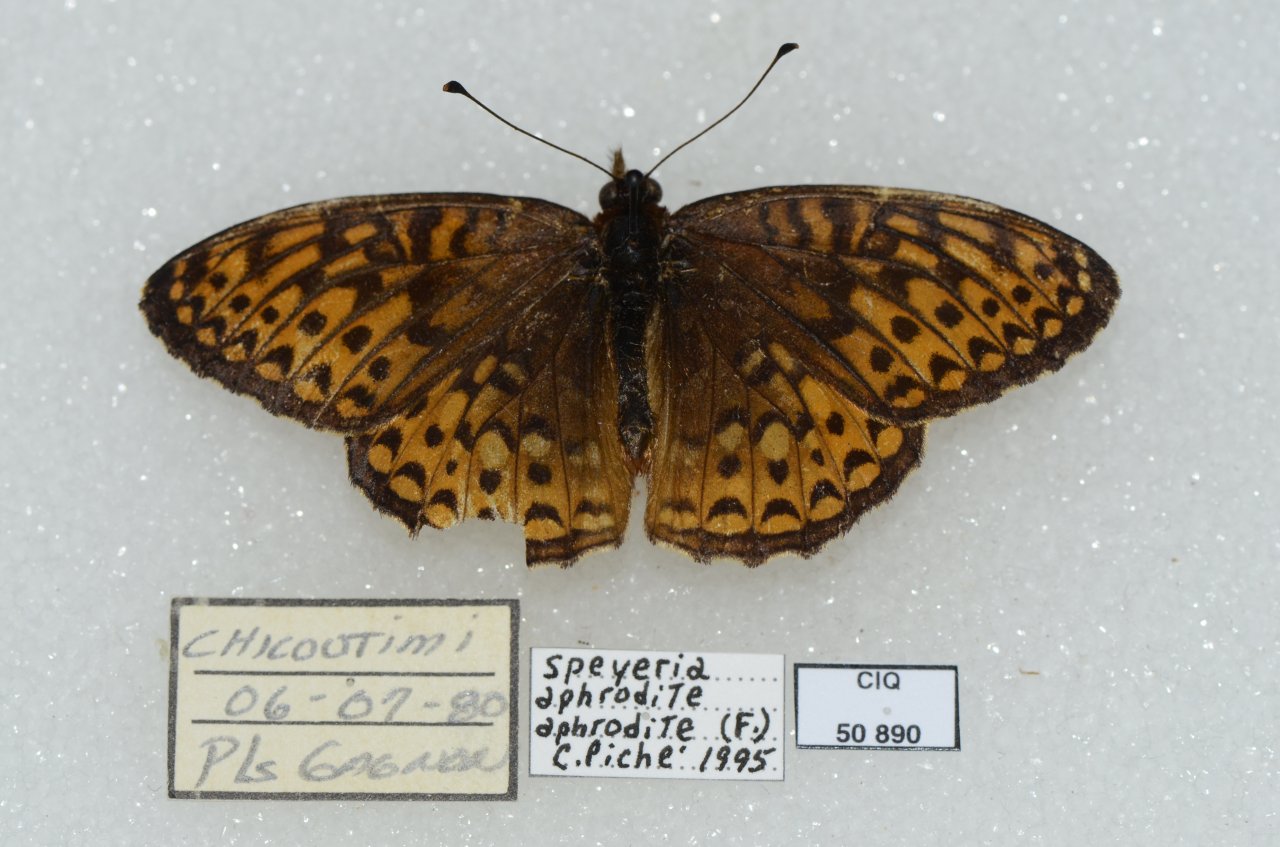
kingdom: Animalia
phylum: Arthropoda
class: Insecta
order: Lepidoptera
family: Nymphalidae
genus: Speyeria
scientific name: Speyeria atlantis
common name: Atlantis Fritillary
